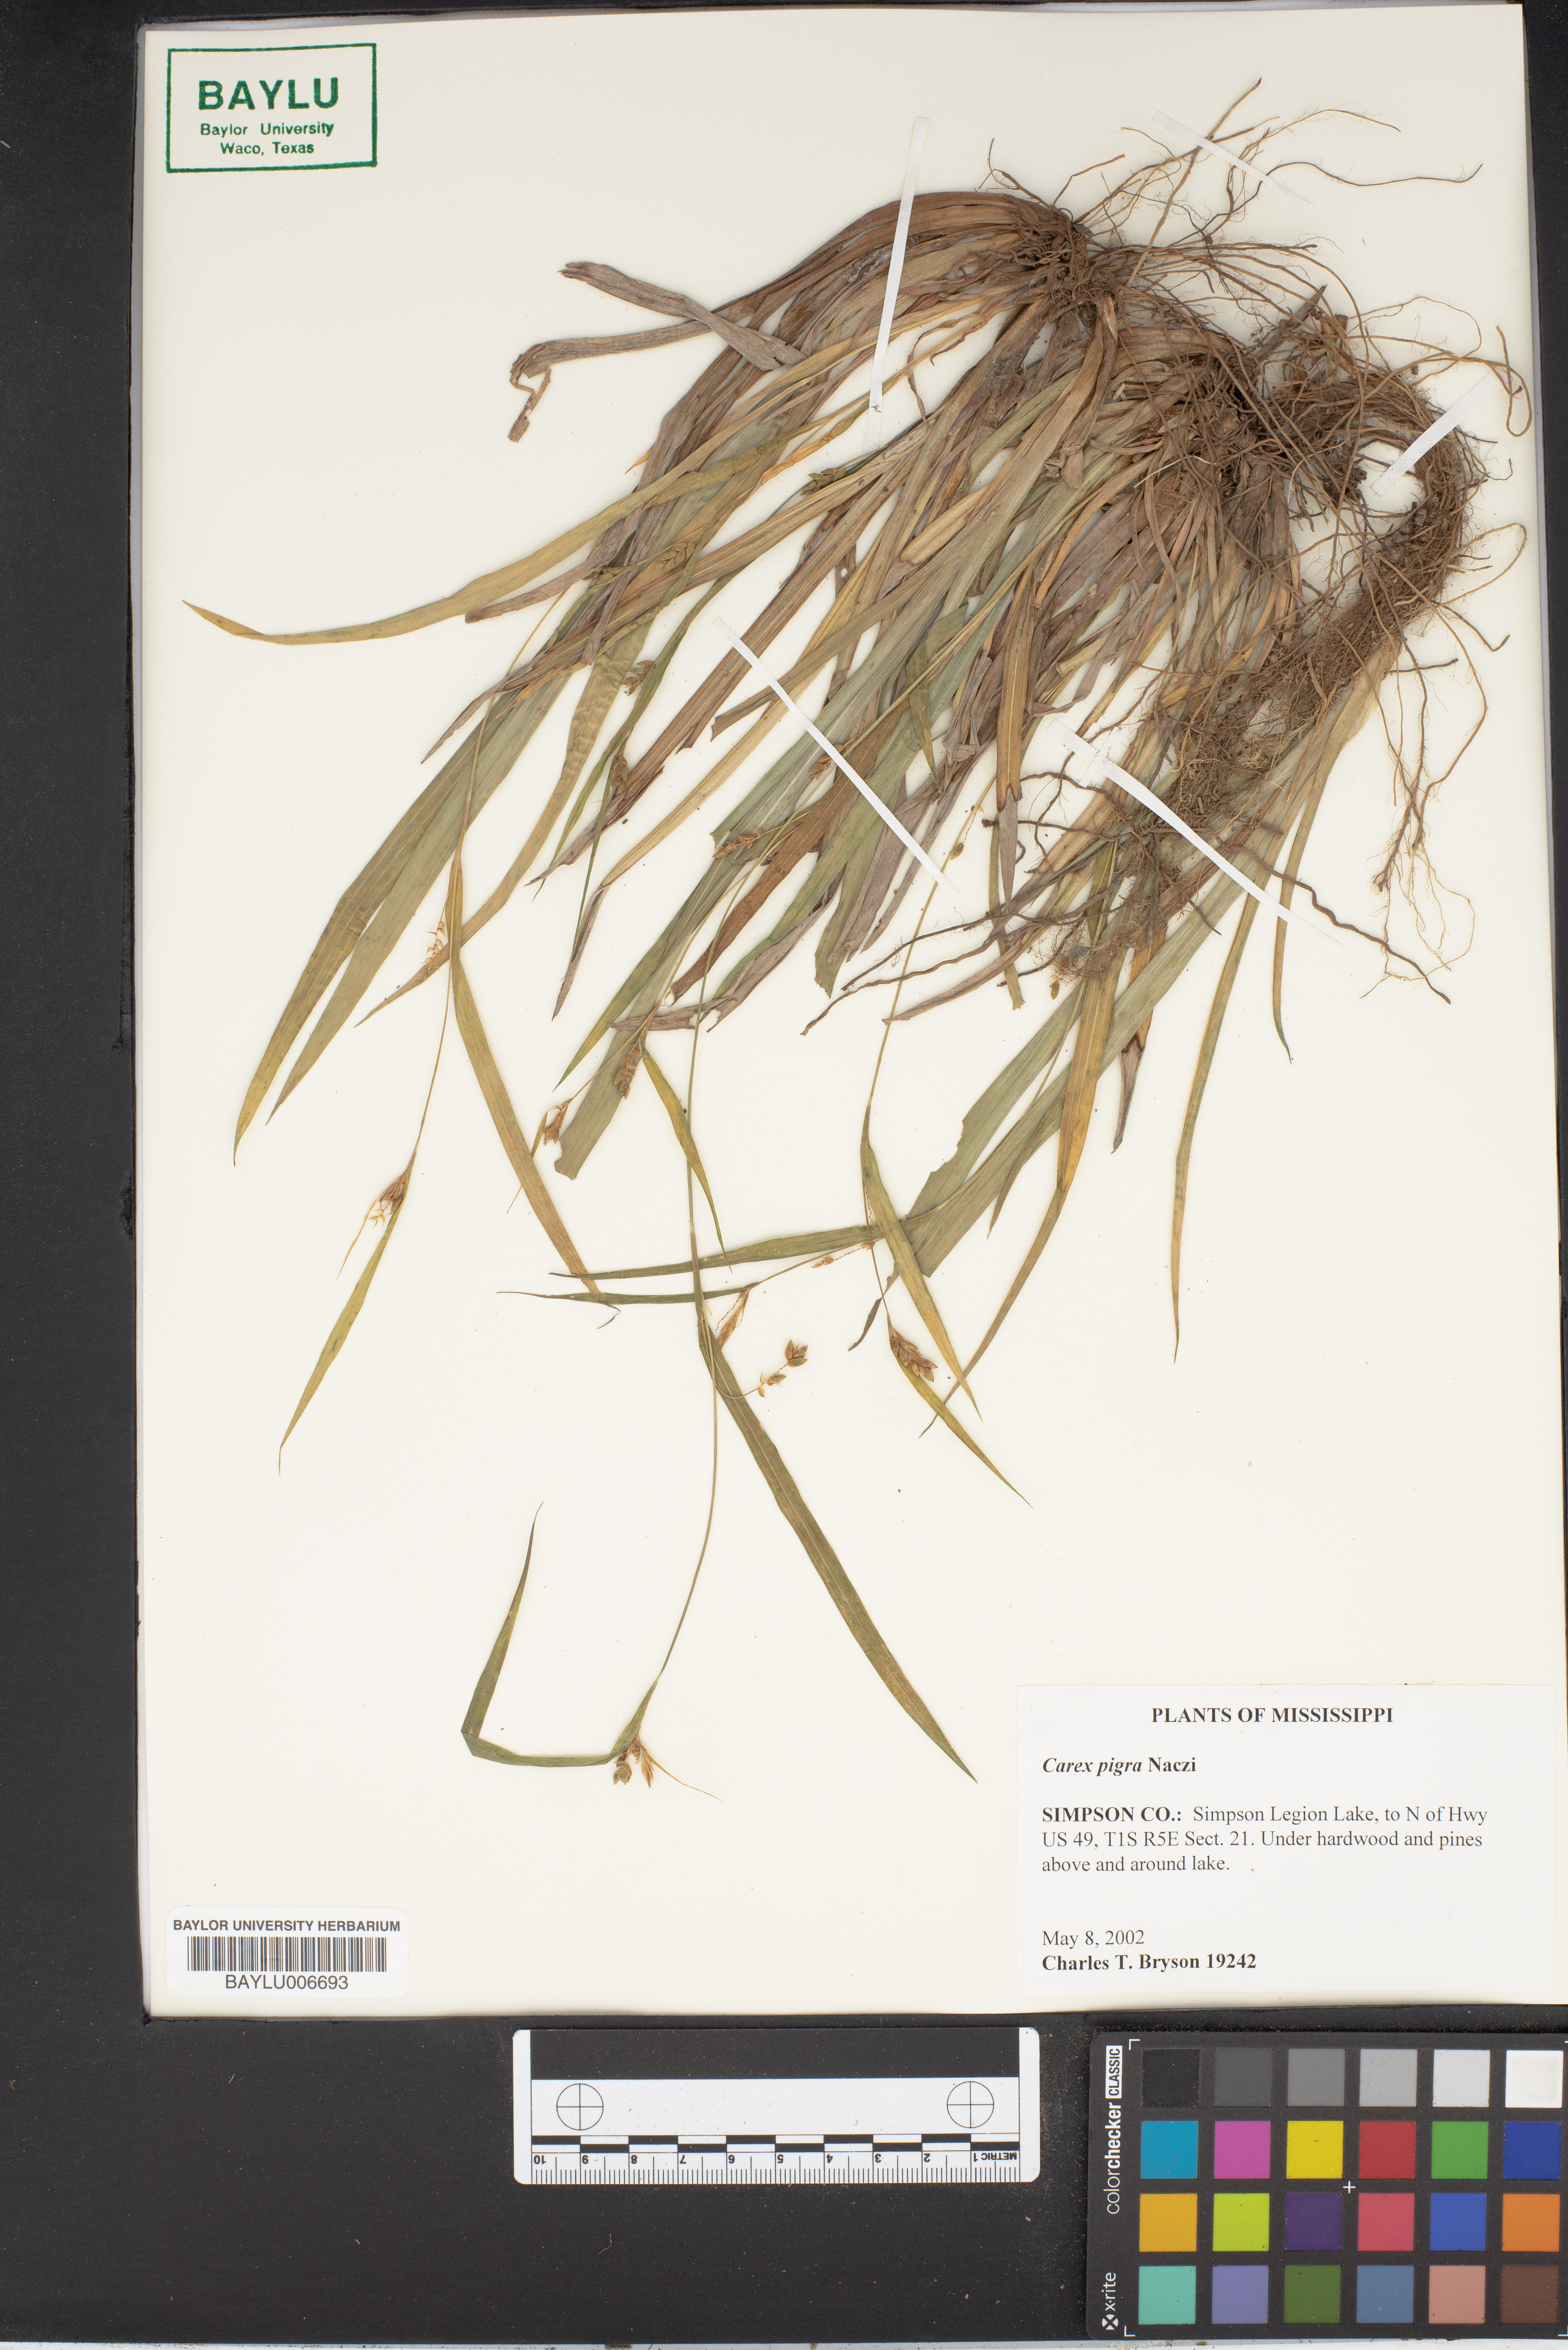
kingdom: Plantae
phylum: Tracheophyta
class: Liliopsida
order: Poales
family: Cyperaceae
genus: Carex
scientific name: Carex pigra
